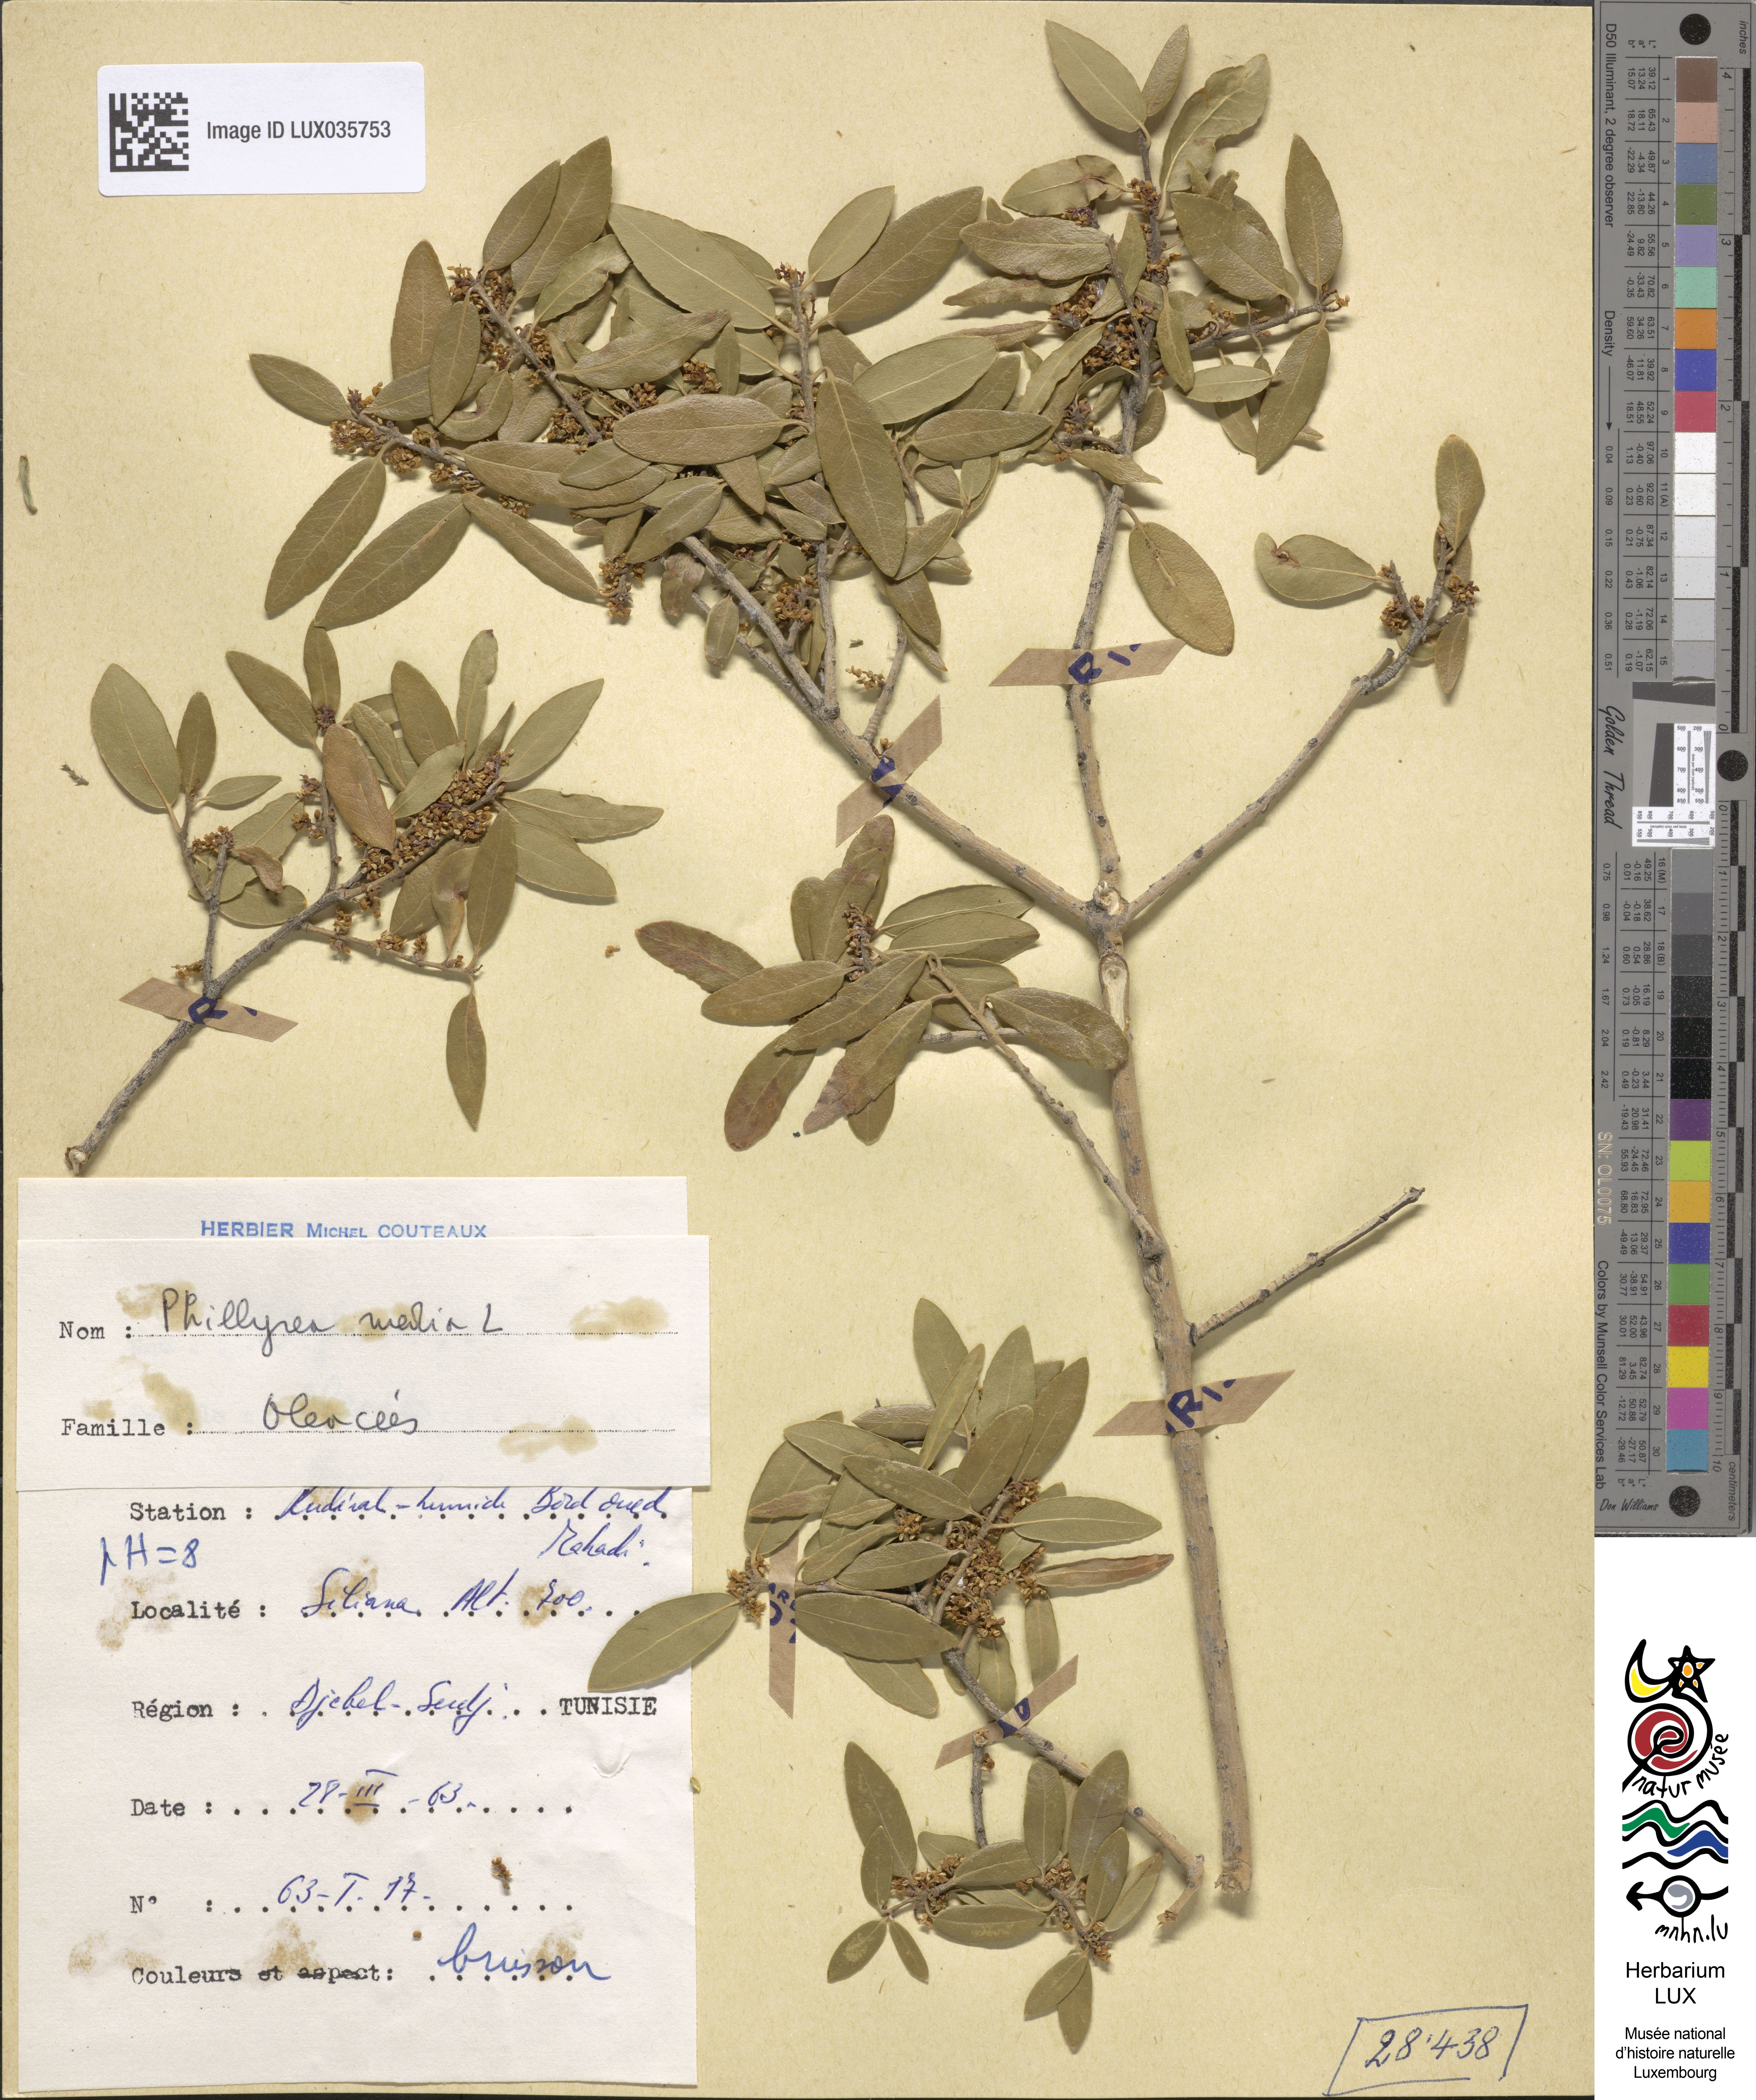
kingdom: Plantae
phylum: Tracheophyta
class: Magnoliopsida
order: Lamiales
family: Oleaceae
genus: Phillyrea
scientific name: Phillyrea latifolia
